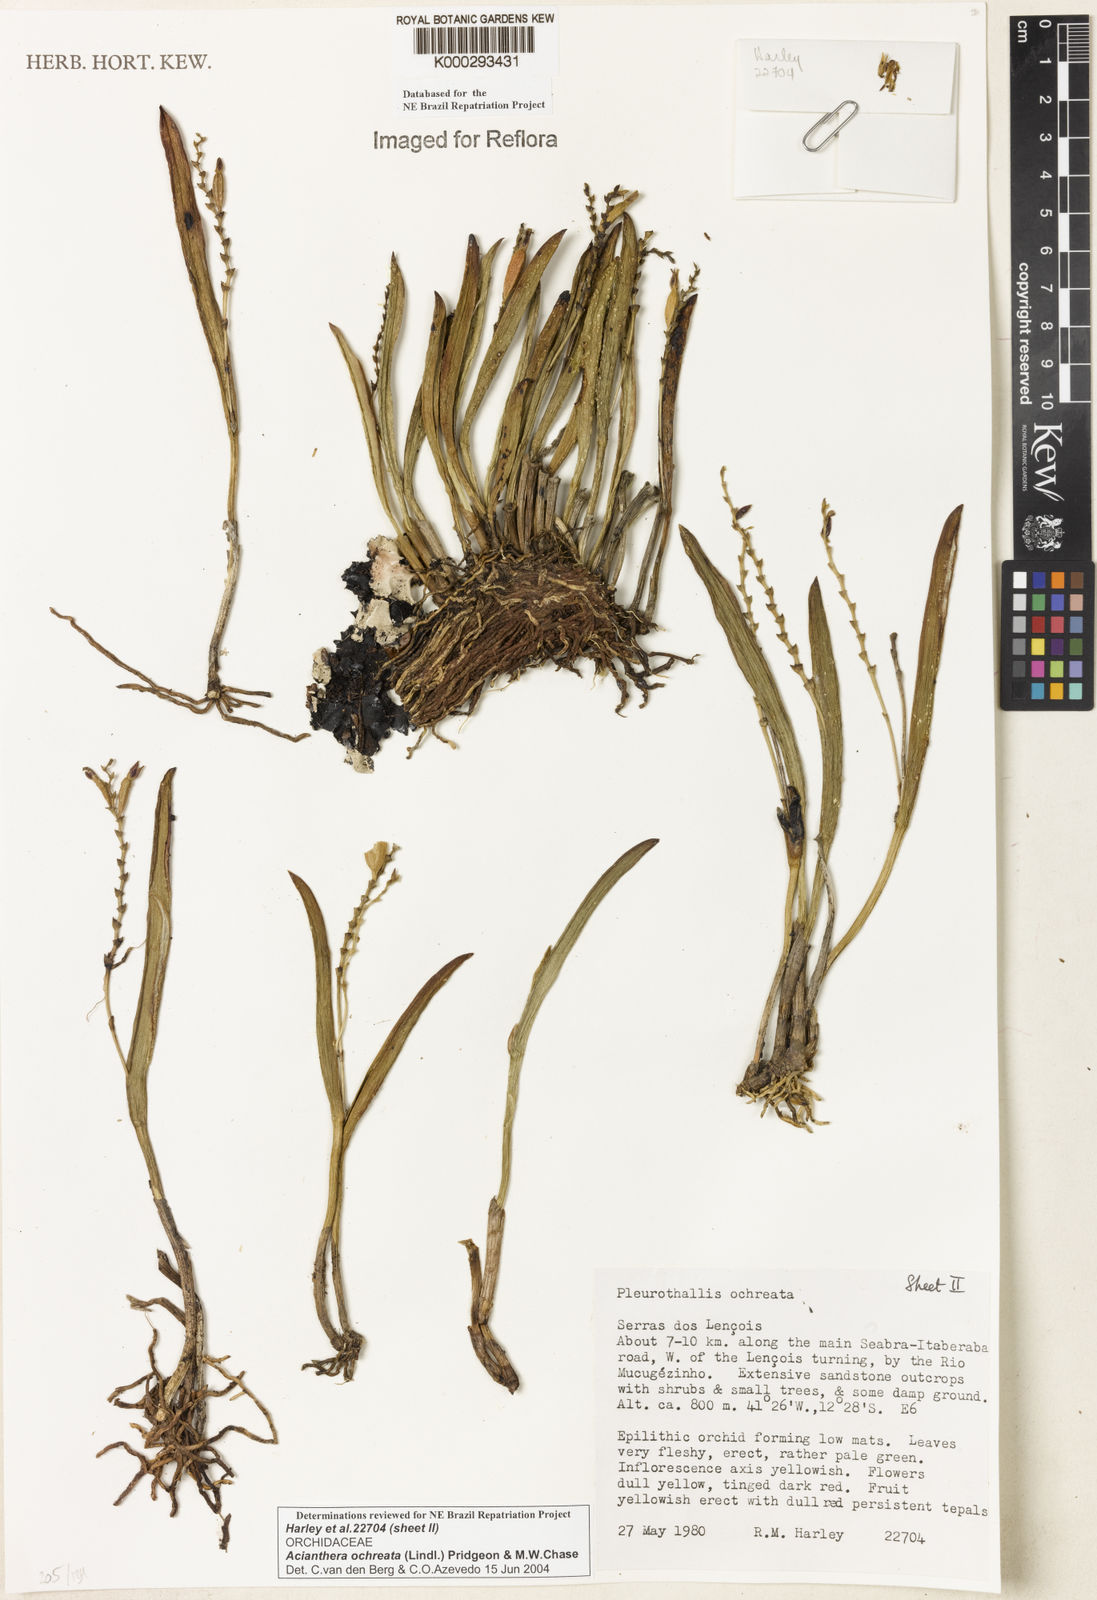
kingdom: Plantae
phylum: Tracheophyta
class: Liliopsida
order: Asparagales
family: Orchidaceae
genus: Acianthera
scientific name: Acianthera ochreata
